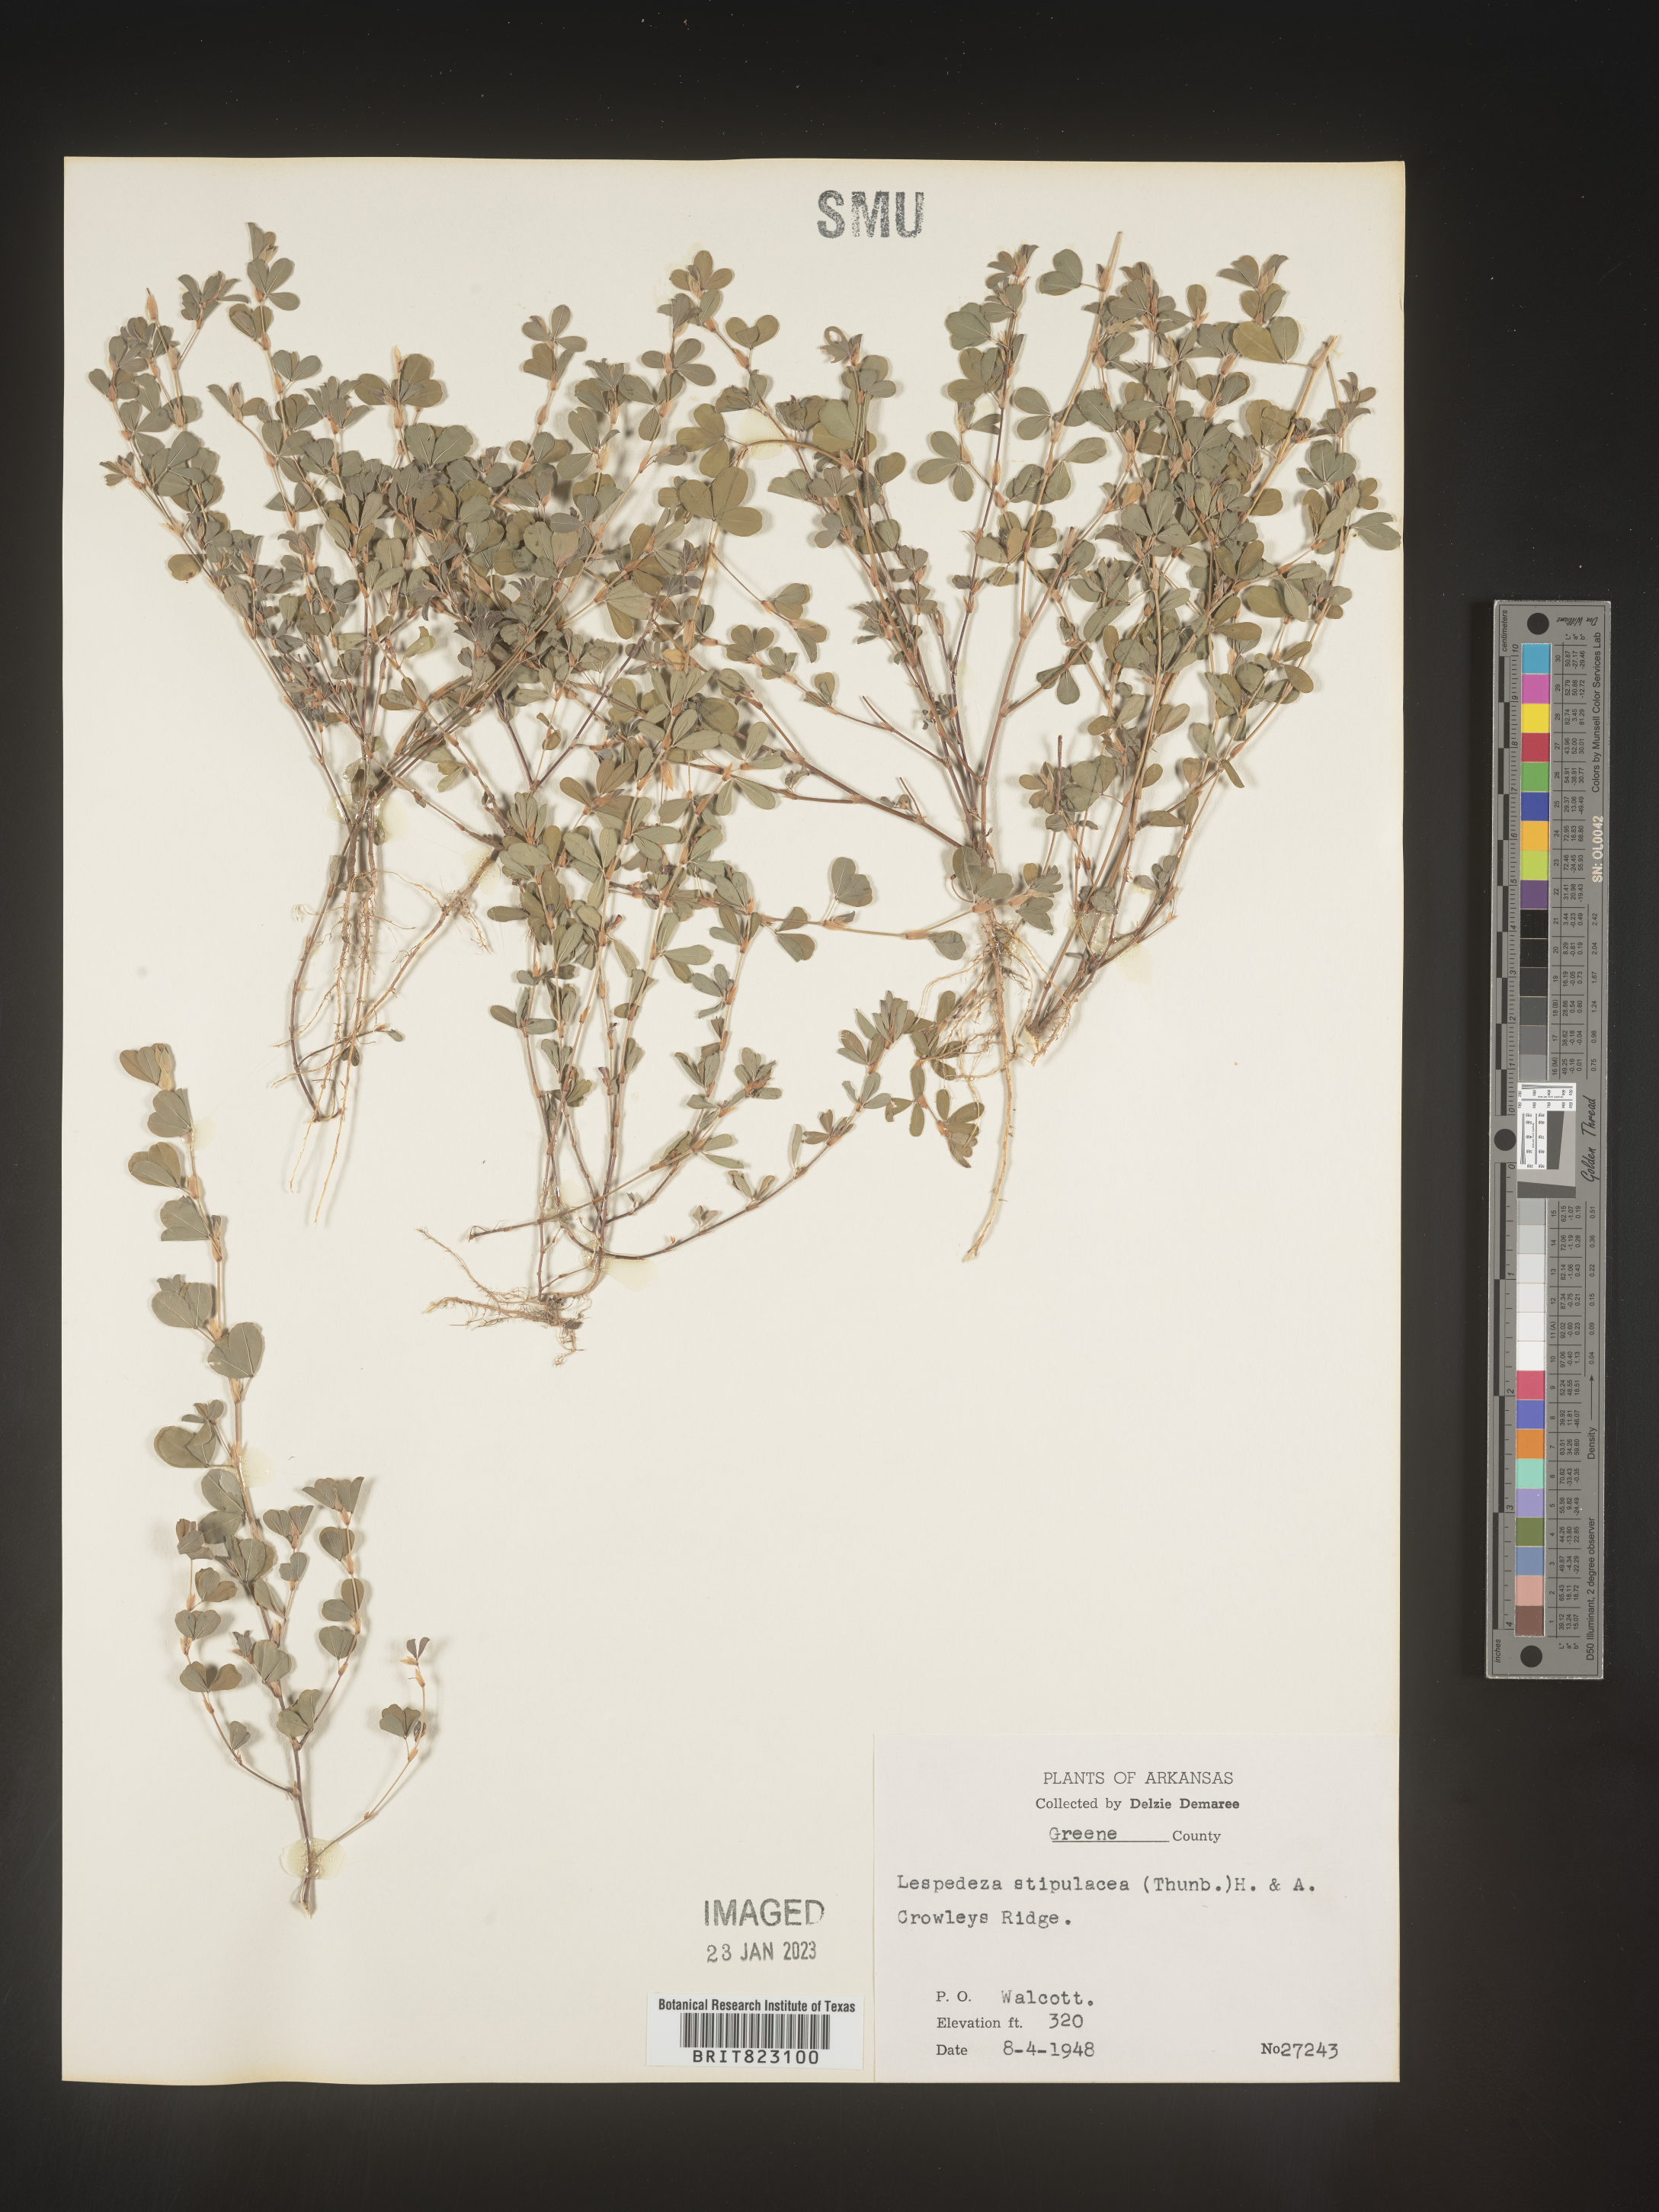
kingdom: Plantae
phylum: Tracheophyta
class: Magnoliopsida
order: Fabales
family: Fabaceae
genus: Lespedeza
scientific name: Lespedeza
